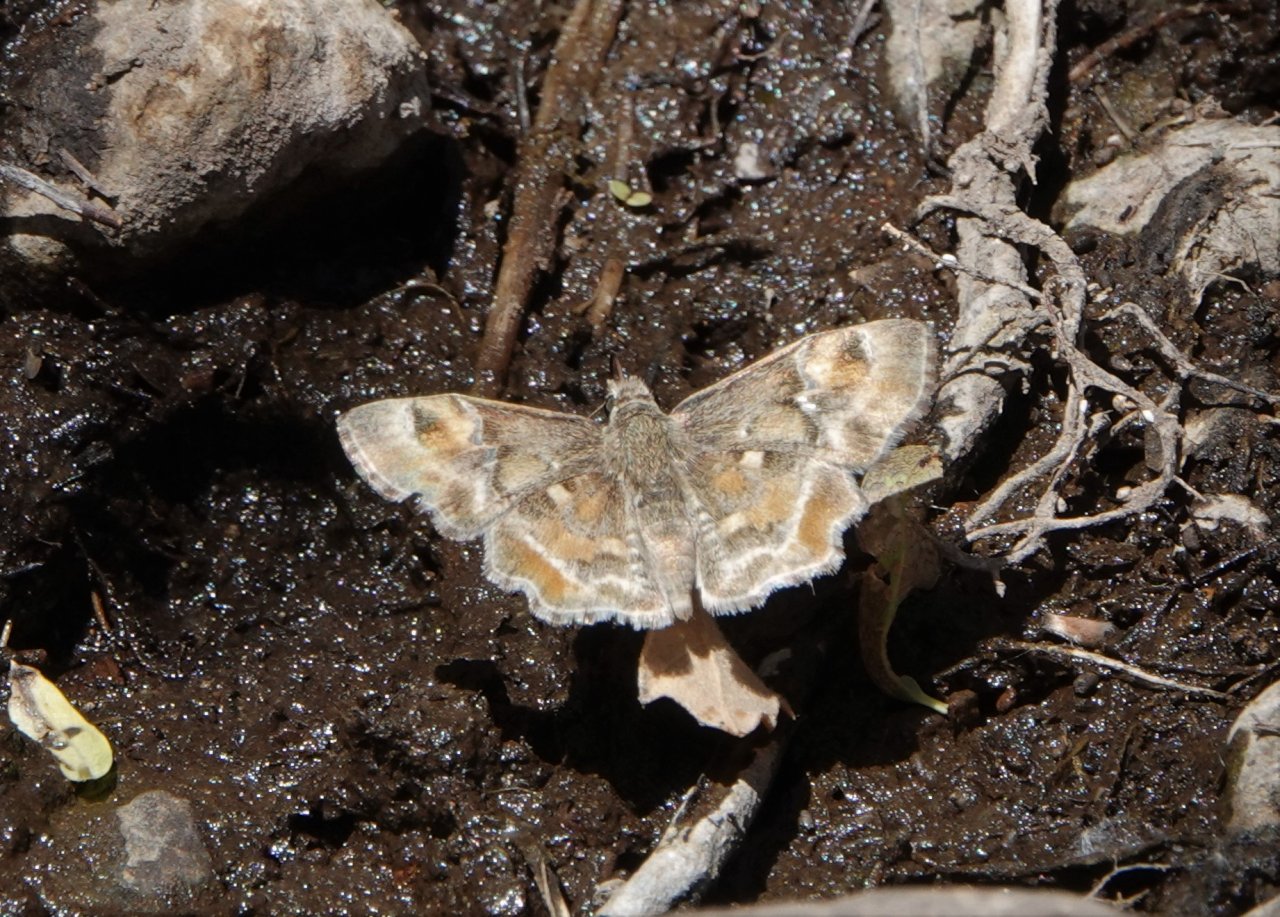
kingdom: Animalia
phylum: Arthropoda
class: Insecta
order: Lepidoptera
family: Hesperiidae
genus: Systasea
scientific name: Systasea zampa
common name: Arizona Powdered-Skipper
